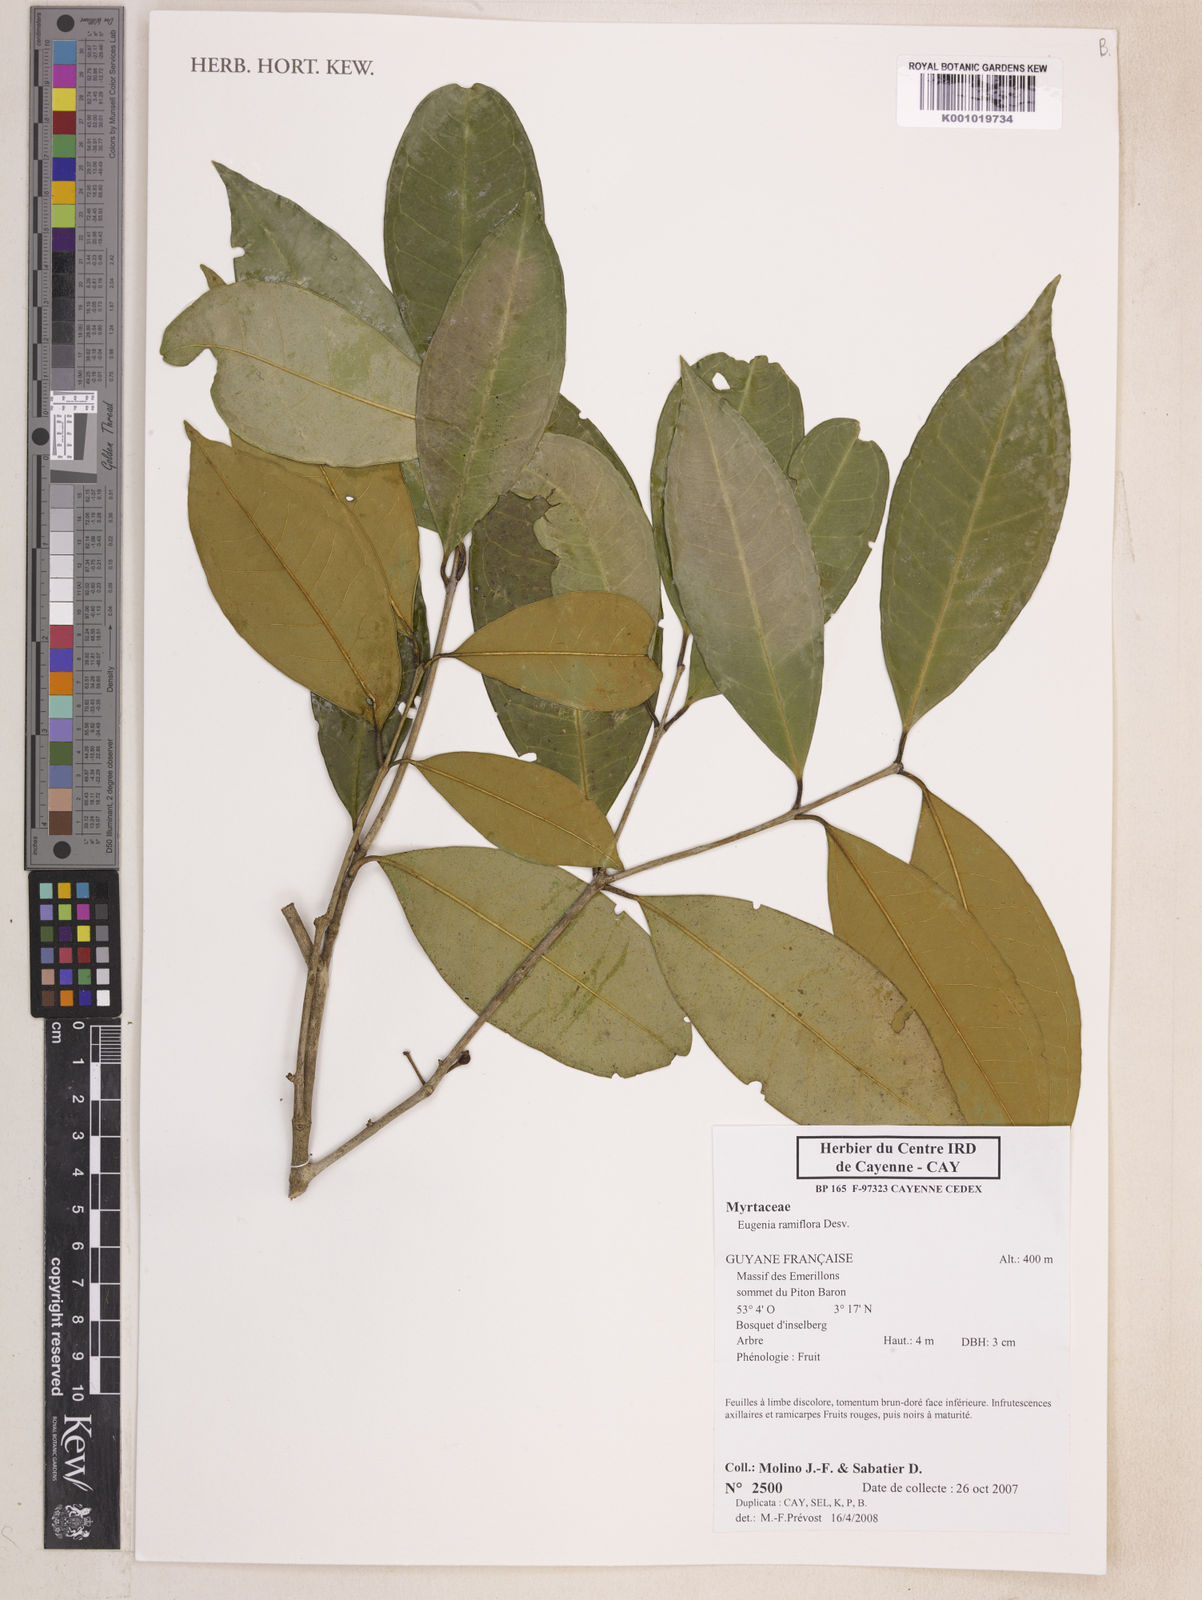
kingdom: Plantae
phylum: Tracheophyta
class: Magnoliopsida
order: Myrtales
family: Myrtaceae
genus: Eugenia
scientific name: Eugenia ramiflora
